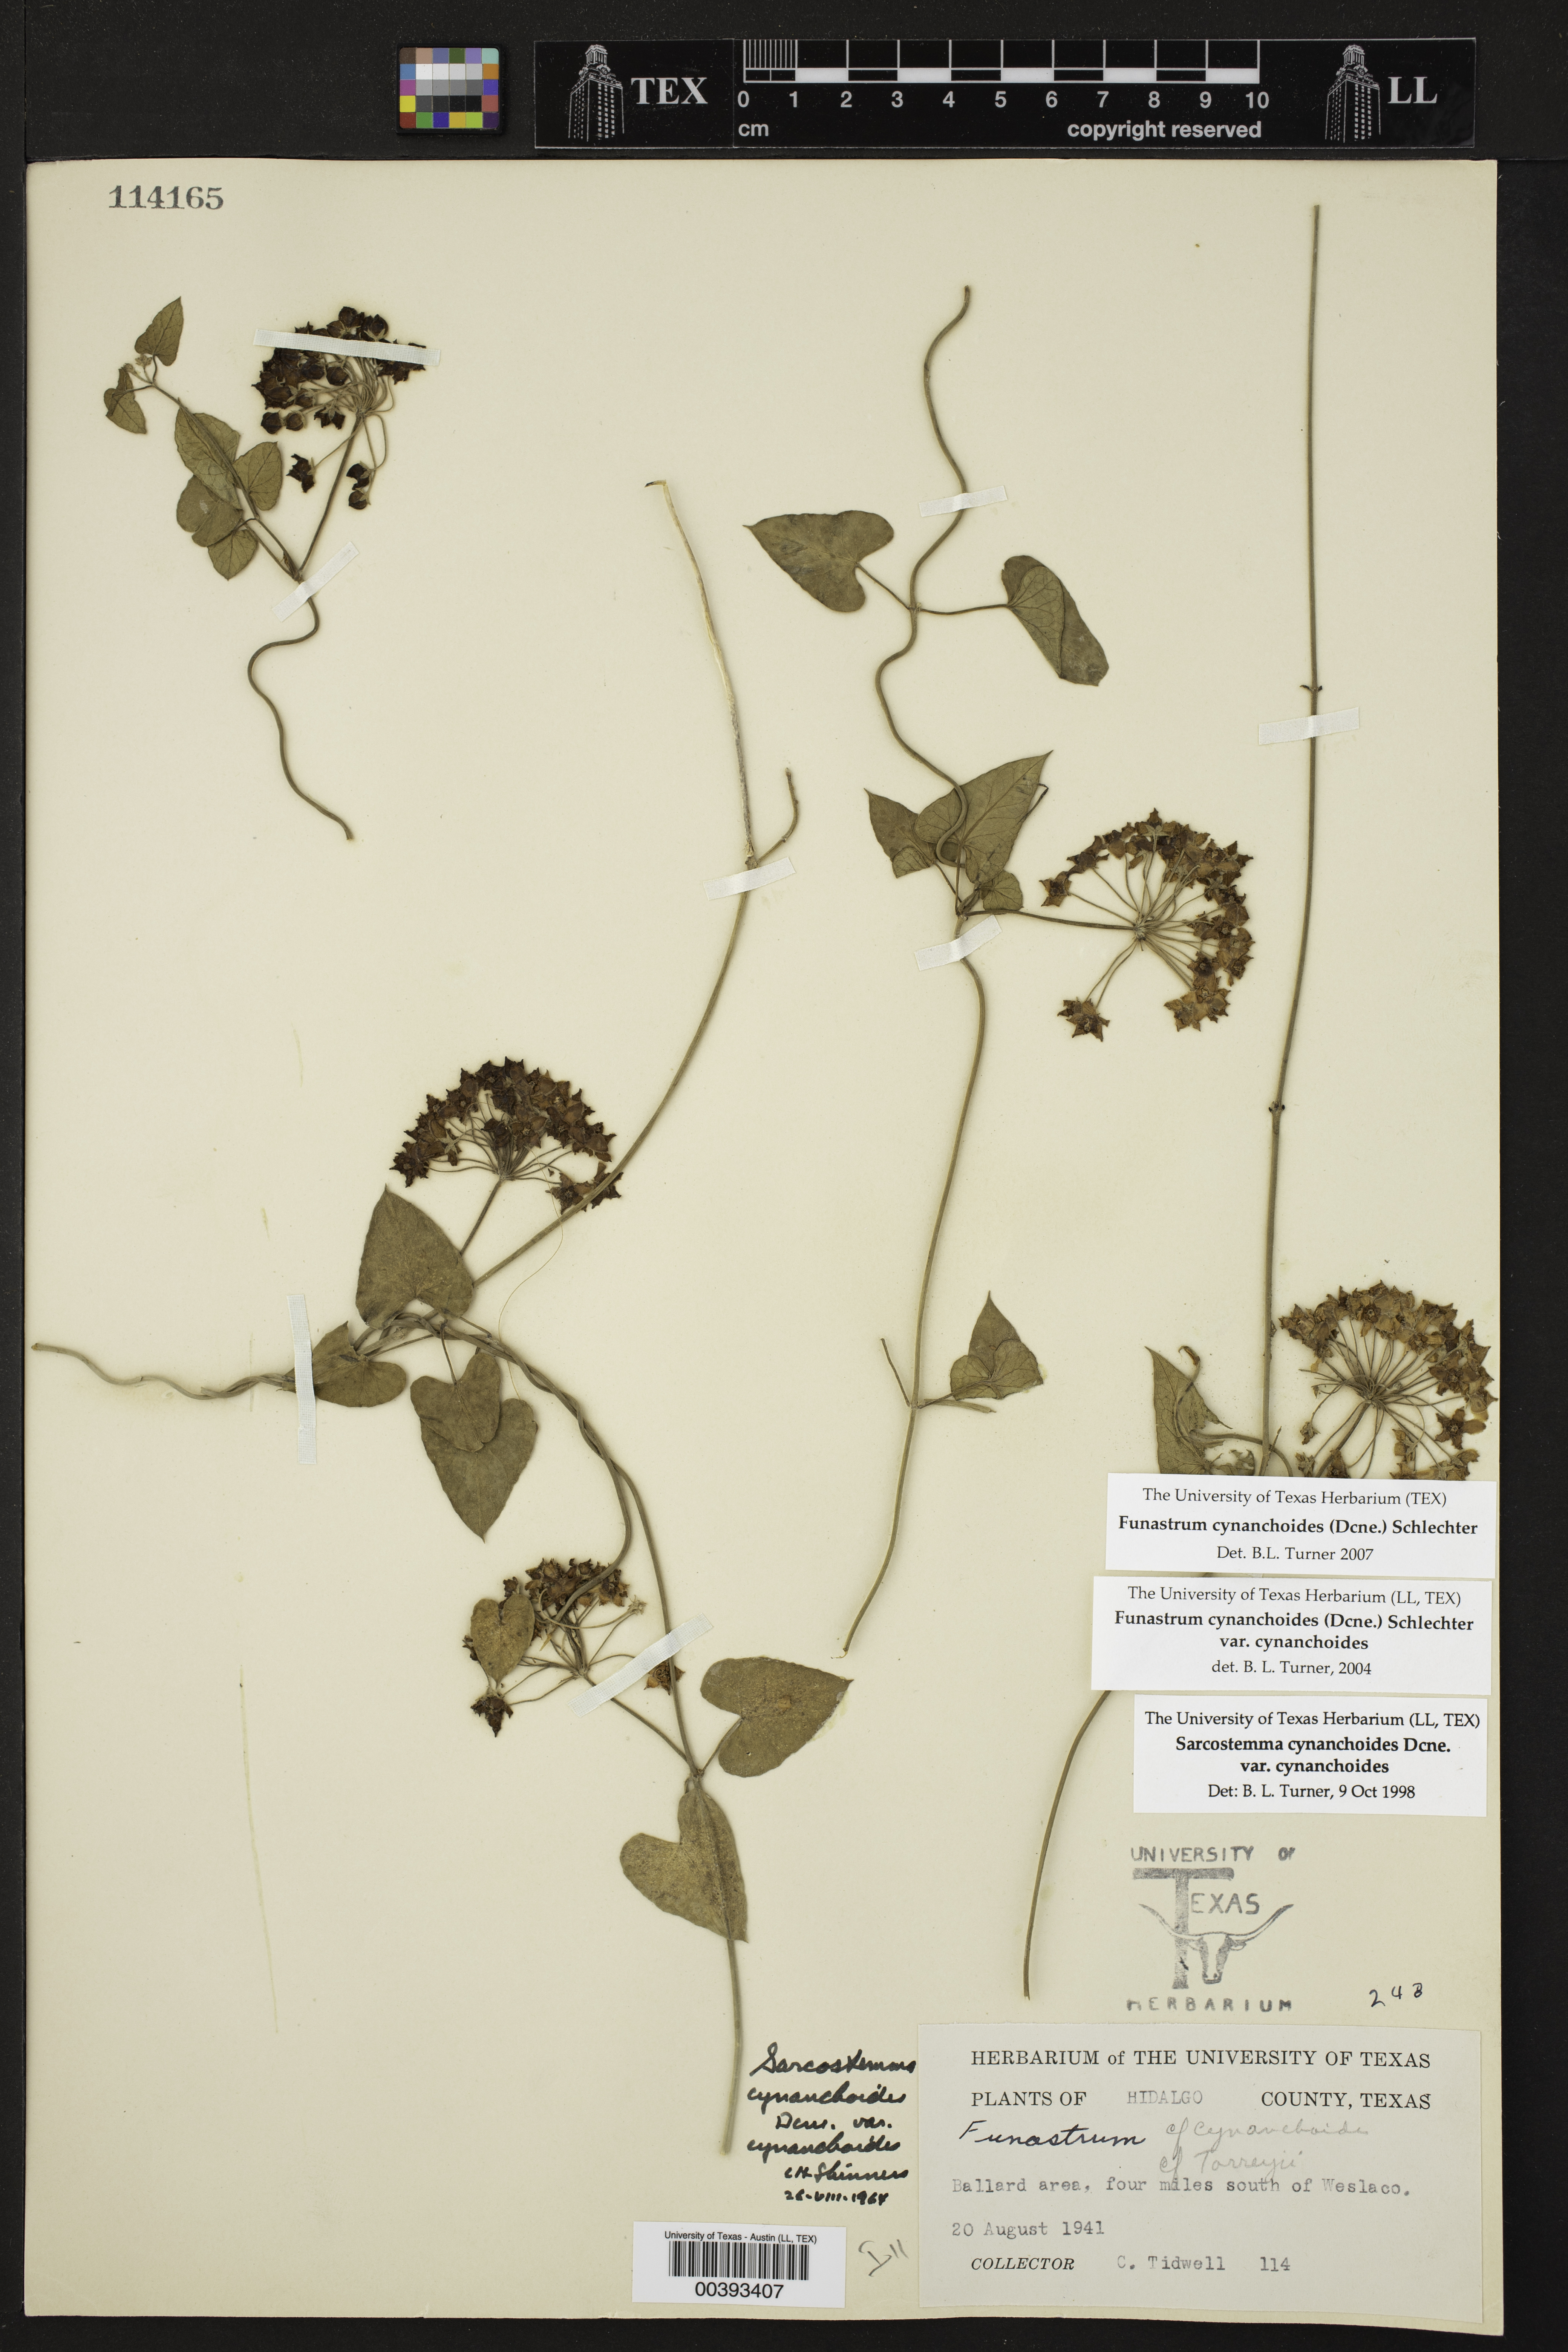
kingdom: Plantae
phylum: Tracheophyta
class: Magnoliopsida
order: Gentianales
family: Apocynaceae
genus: Funastrum
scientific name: Funastrum cynanchoides
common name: Climbing-milkweed
